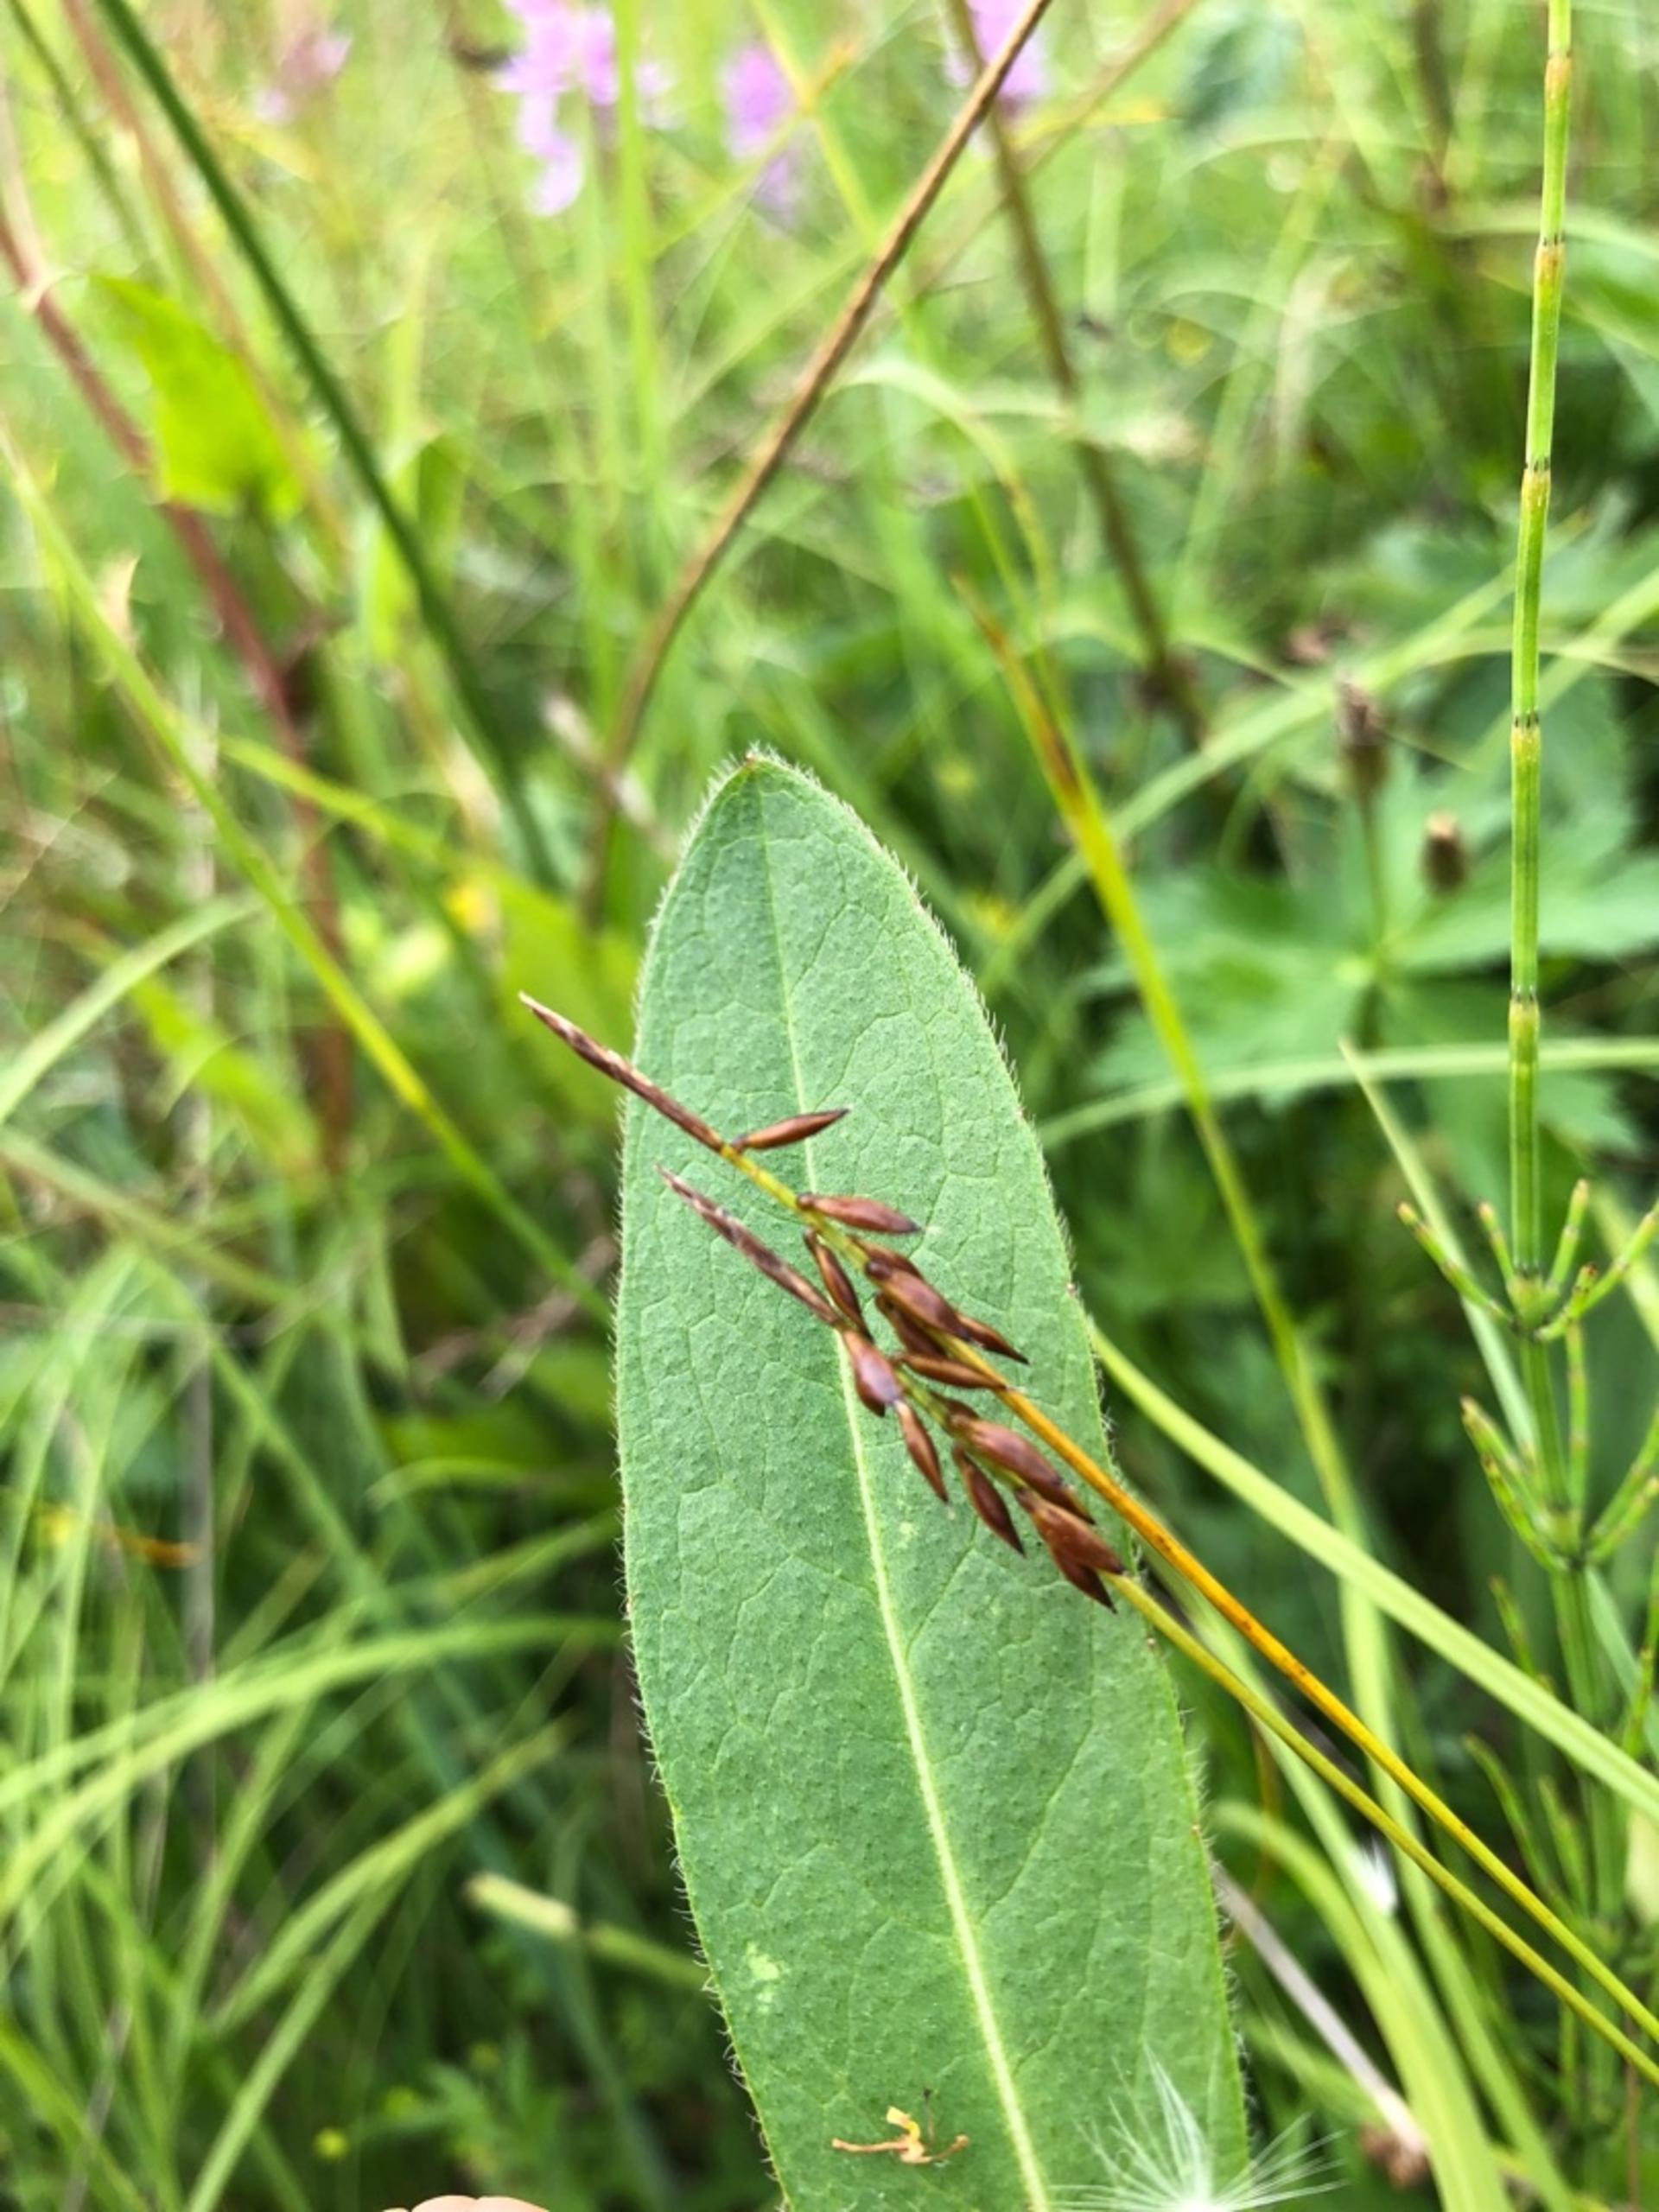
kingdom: Plantae
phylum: Tracheophyta
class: Liliopsida
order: Poales
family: Cyperaceae
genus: Carex
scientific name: Carex pulicaris
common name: Loppe-star
